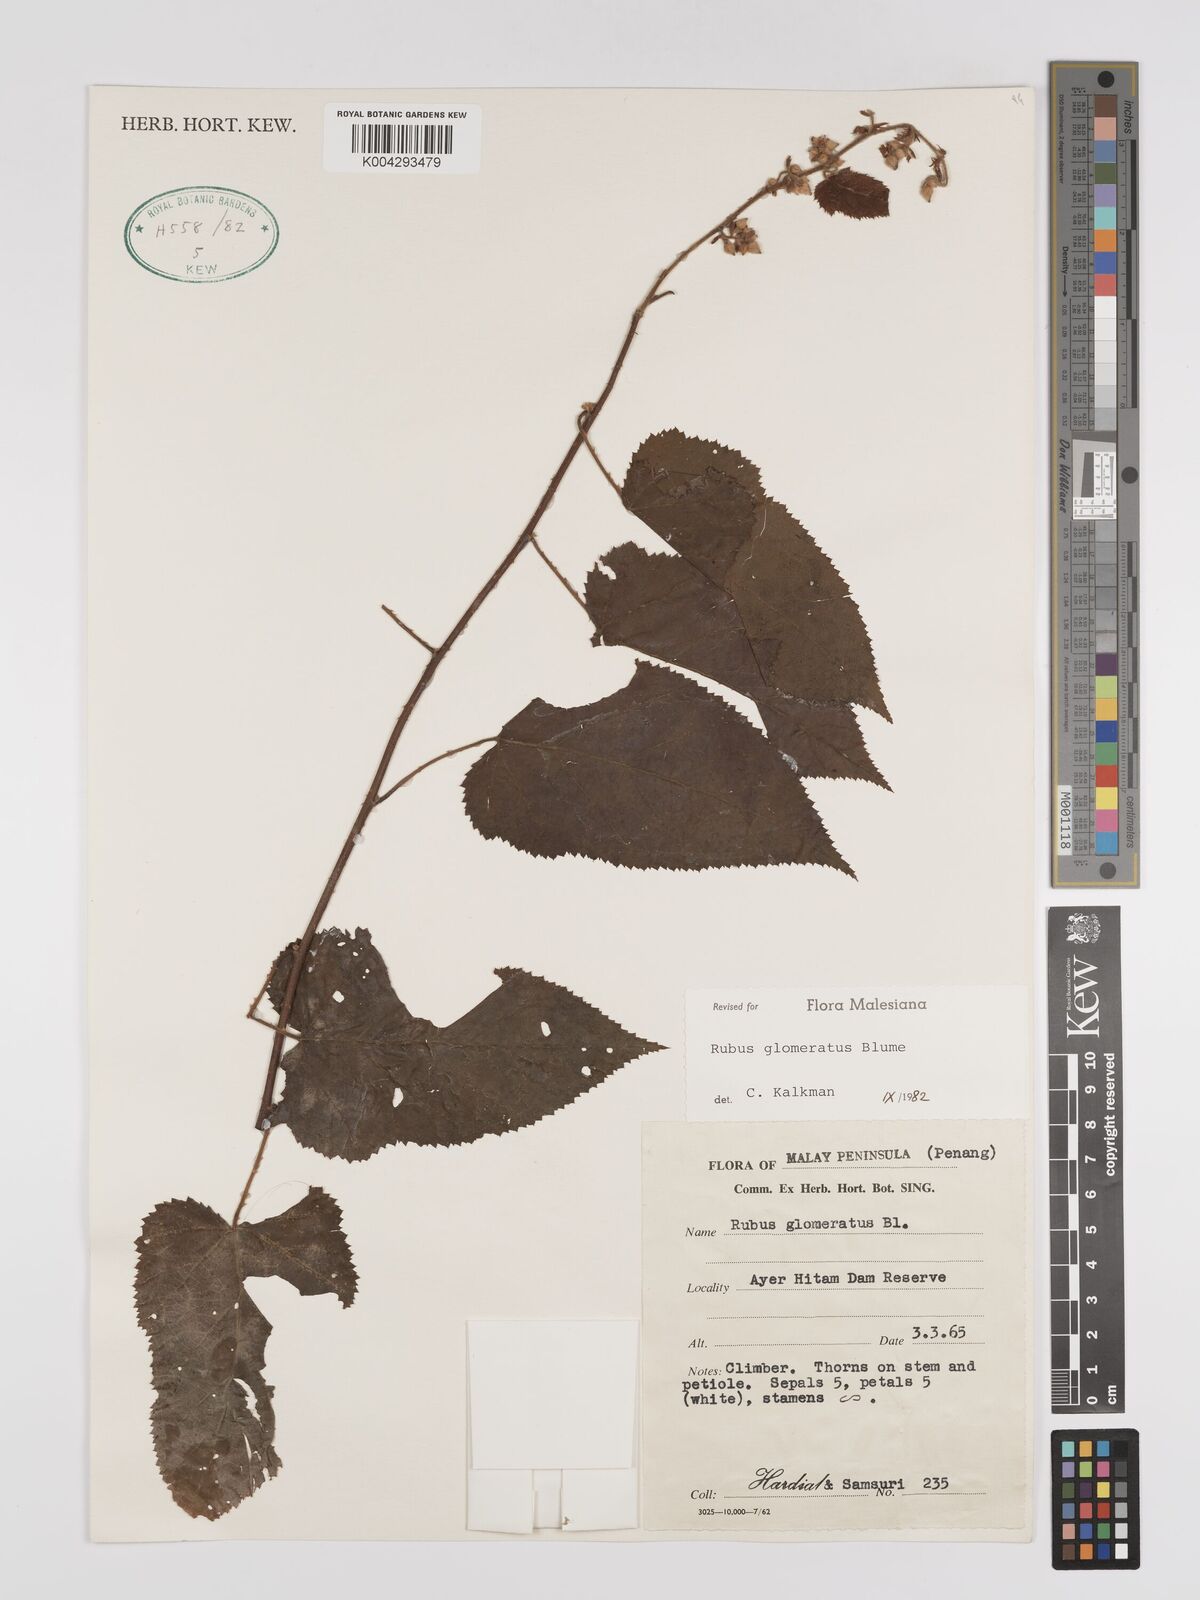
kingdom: Plantae
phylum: Tracheophyta
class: Magnoliopsida
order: Rosales
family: Rosaceae
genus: Rubus
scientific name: Rubus
